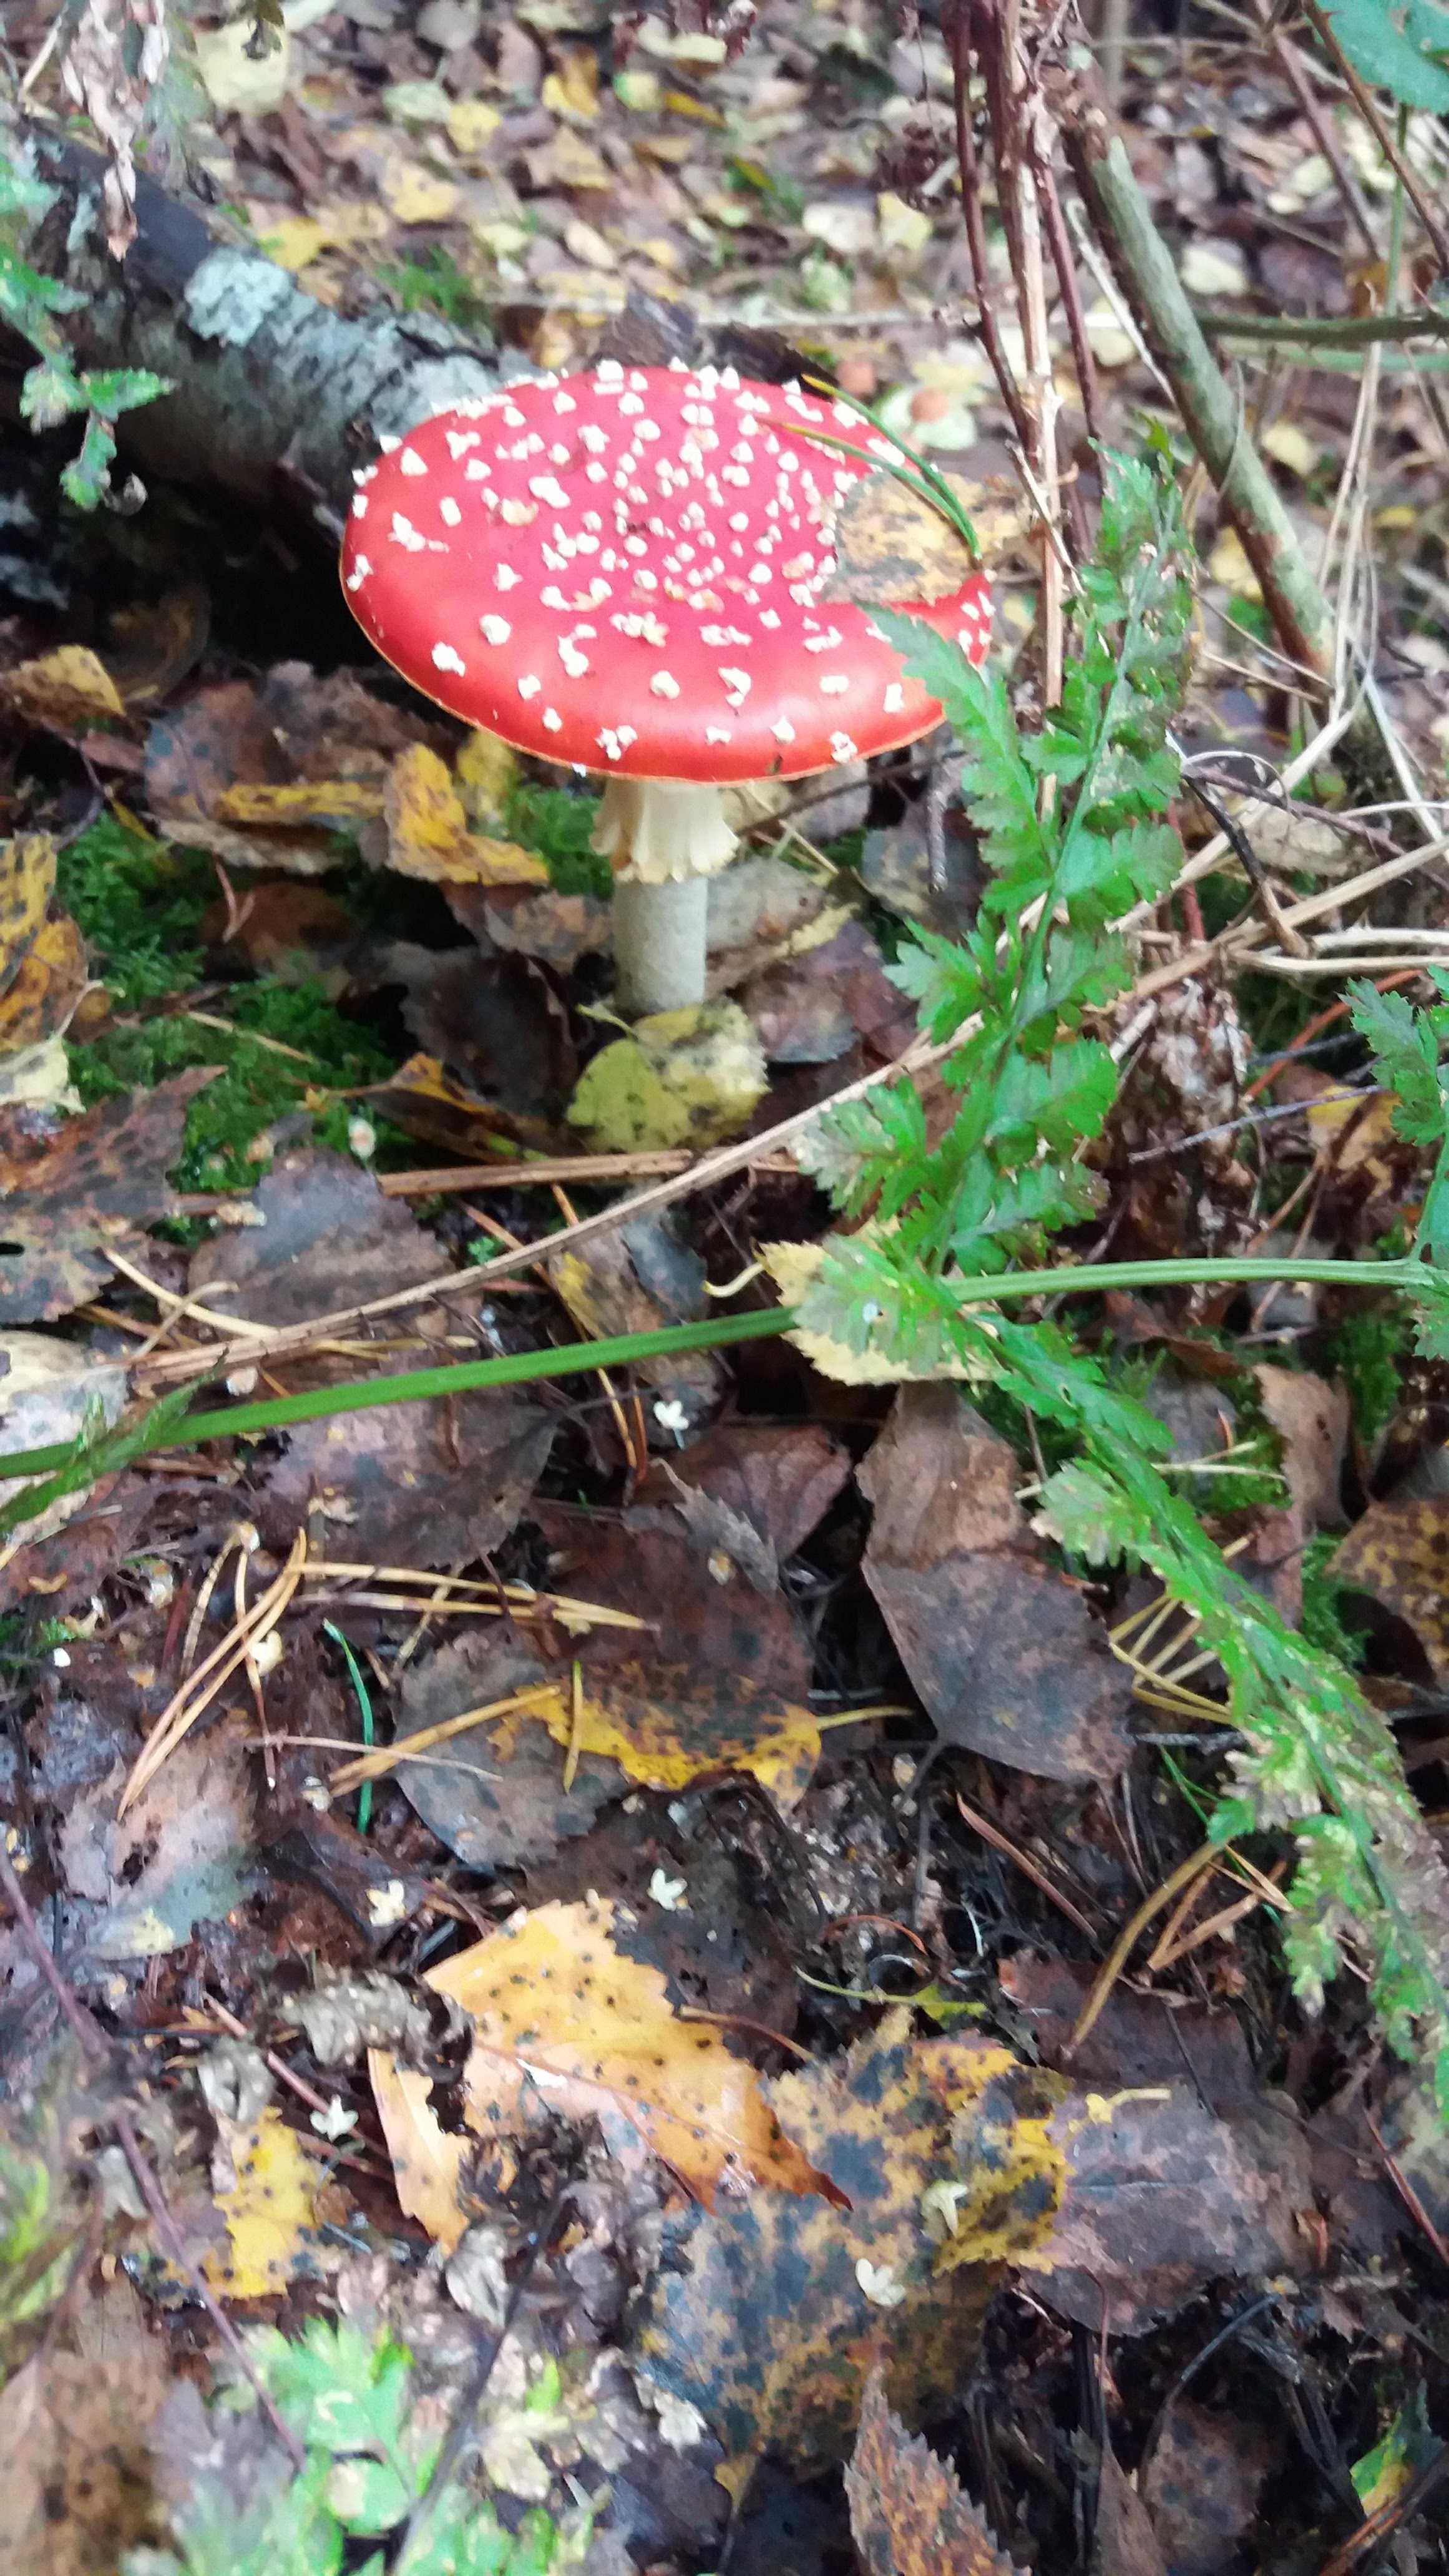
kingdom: Fungi
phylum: Basidiomycota
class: Agaricomycetes
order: Agaricales
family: Amanitaceae
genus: Amanita
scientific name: Amanita muscaria
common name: rød fluesvamp
